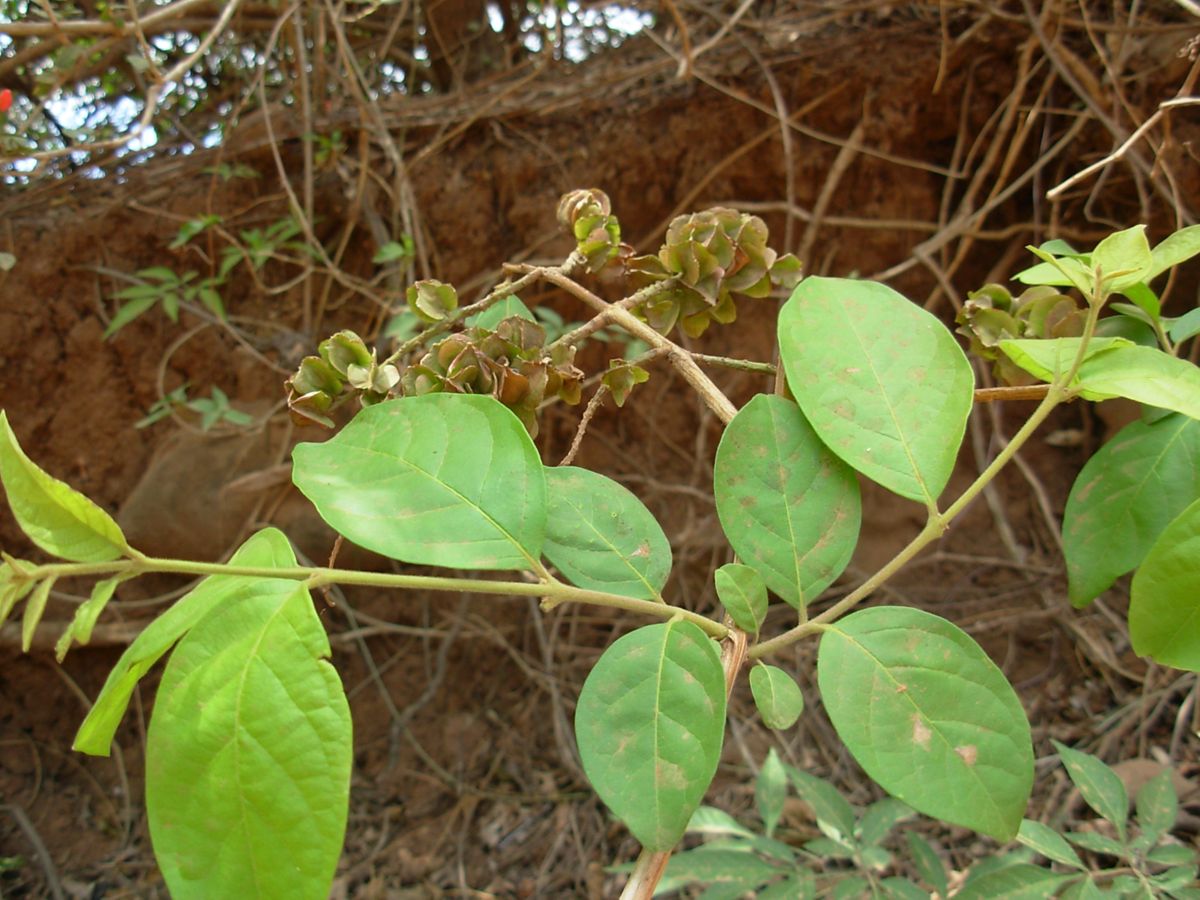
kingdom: Plantae
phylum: Tracheophyta
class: Magnoliopsida
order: Myrtales
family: Combretaceae
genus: Combretum
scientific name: Combretum argenteum
